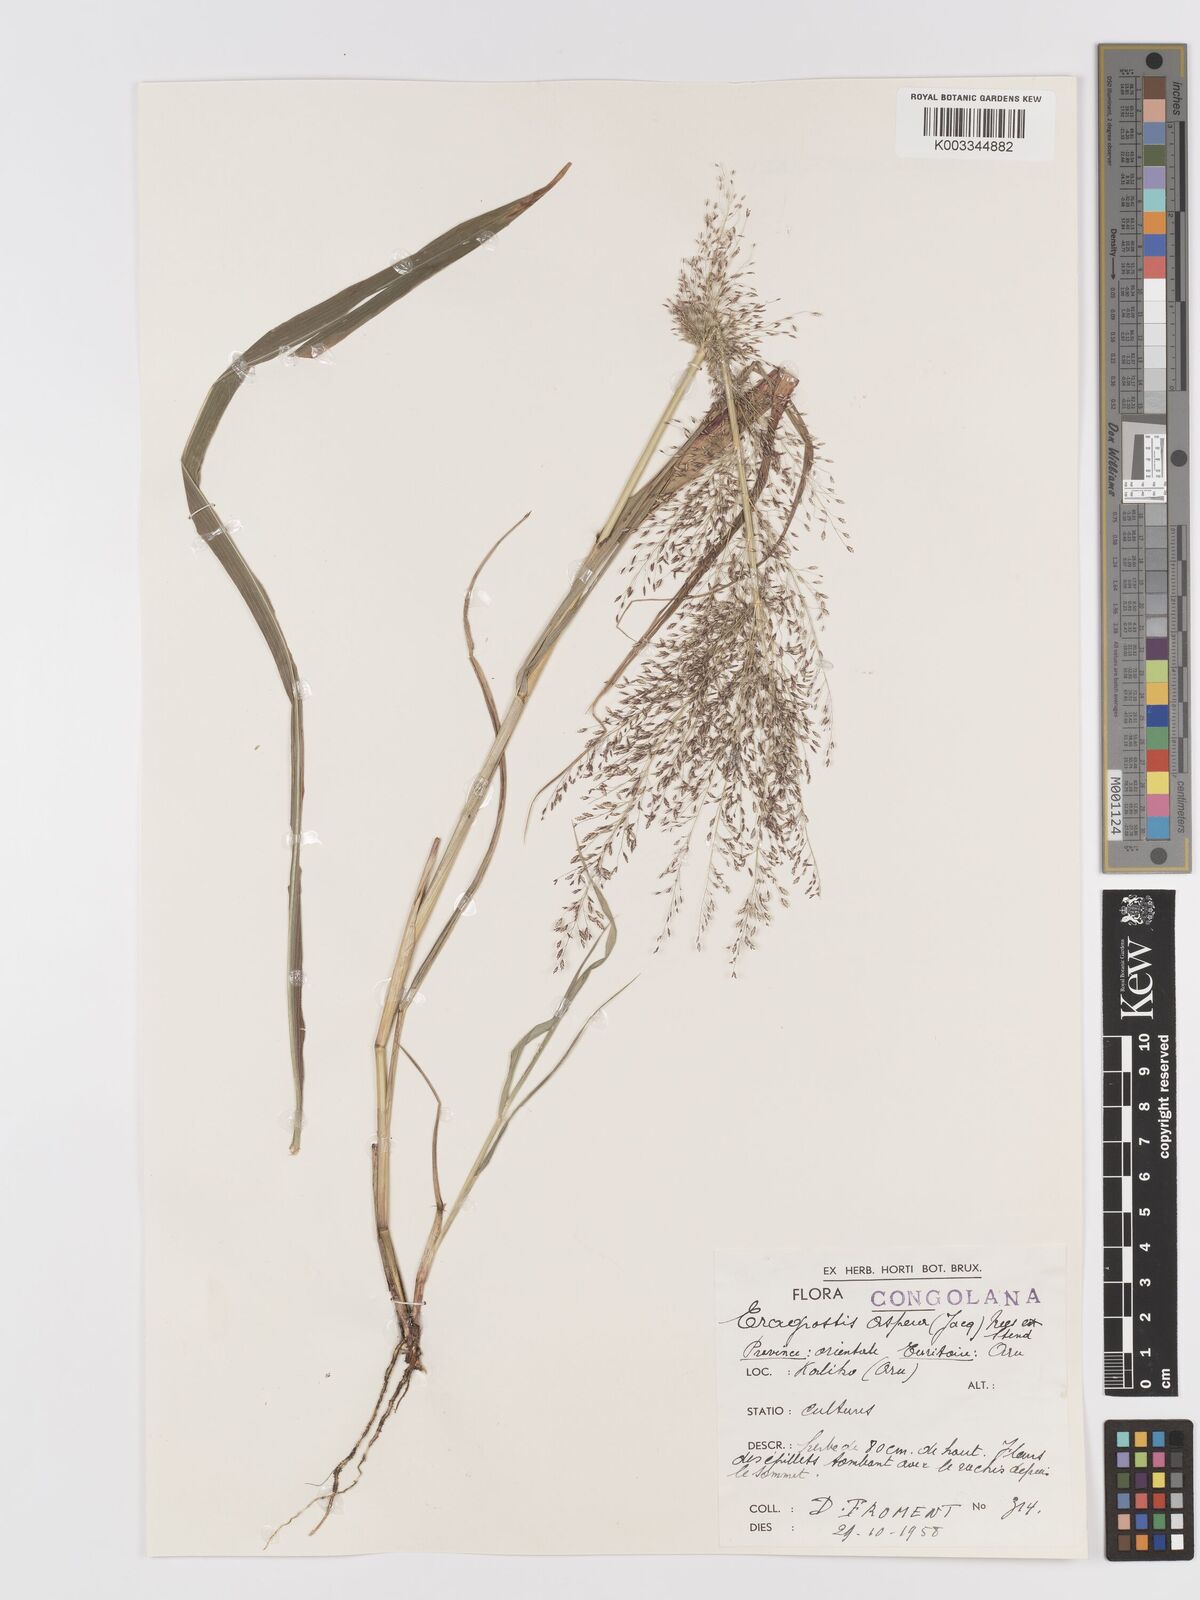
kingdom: Plantae
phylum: Tracheophyta
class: Liliopsida
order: Poales
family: Poaceae
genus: Eragrostis
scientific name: Eragrostis aspera
